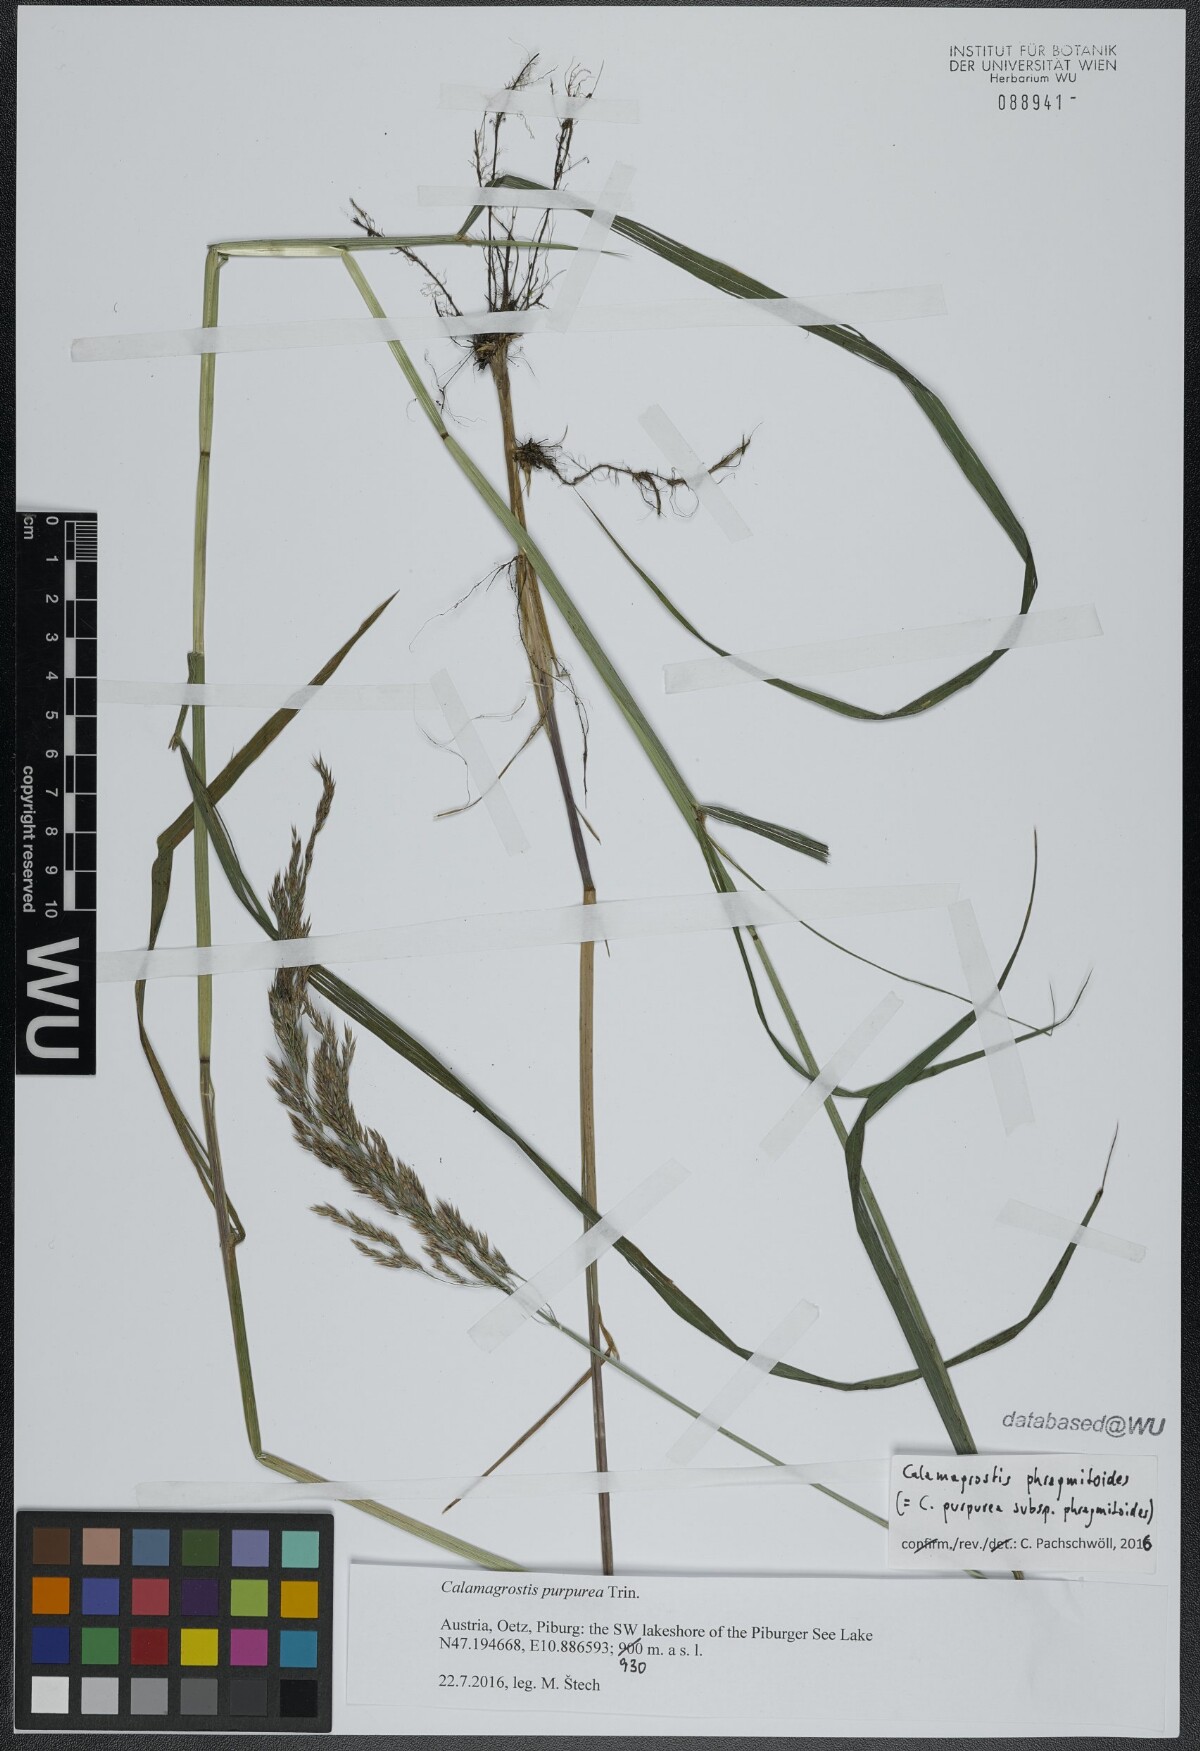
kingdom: Plantae
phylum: Tracheophyta
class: Liliopsida
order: Poales
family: Poaceae
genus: Calamagrostis
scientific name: Calamagrostis purpurea
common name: Scandinavian small-reed
